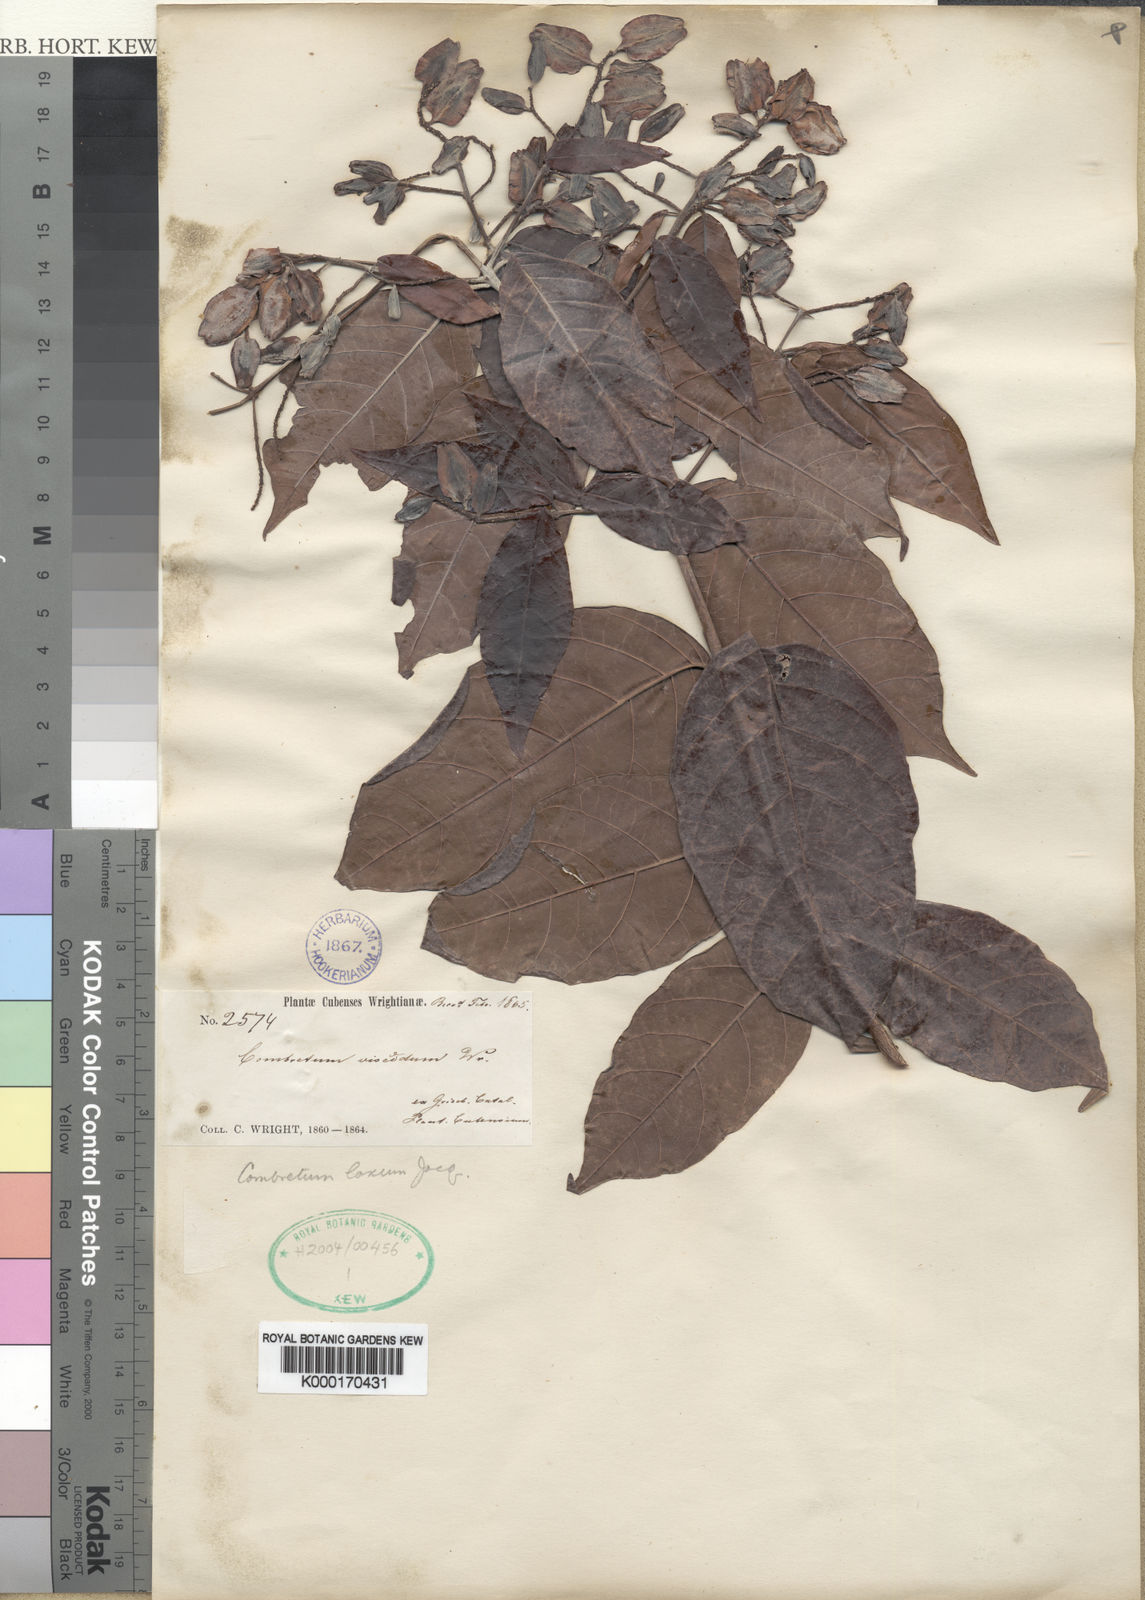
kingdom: Plantae
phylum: Tracheophyta
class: Magnoliopsida
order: Myrtales
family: Combretaceae
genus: Combretum
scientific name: Combretum laxum
